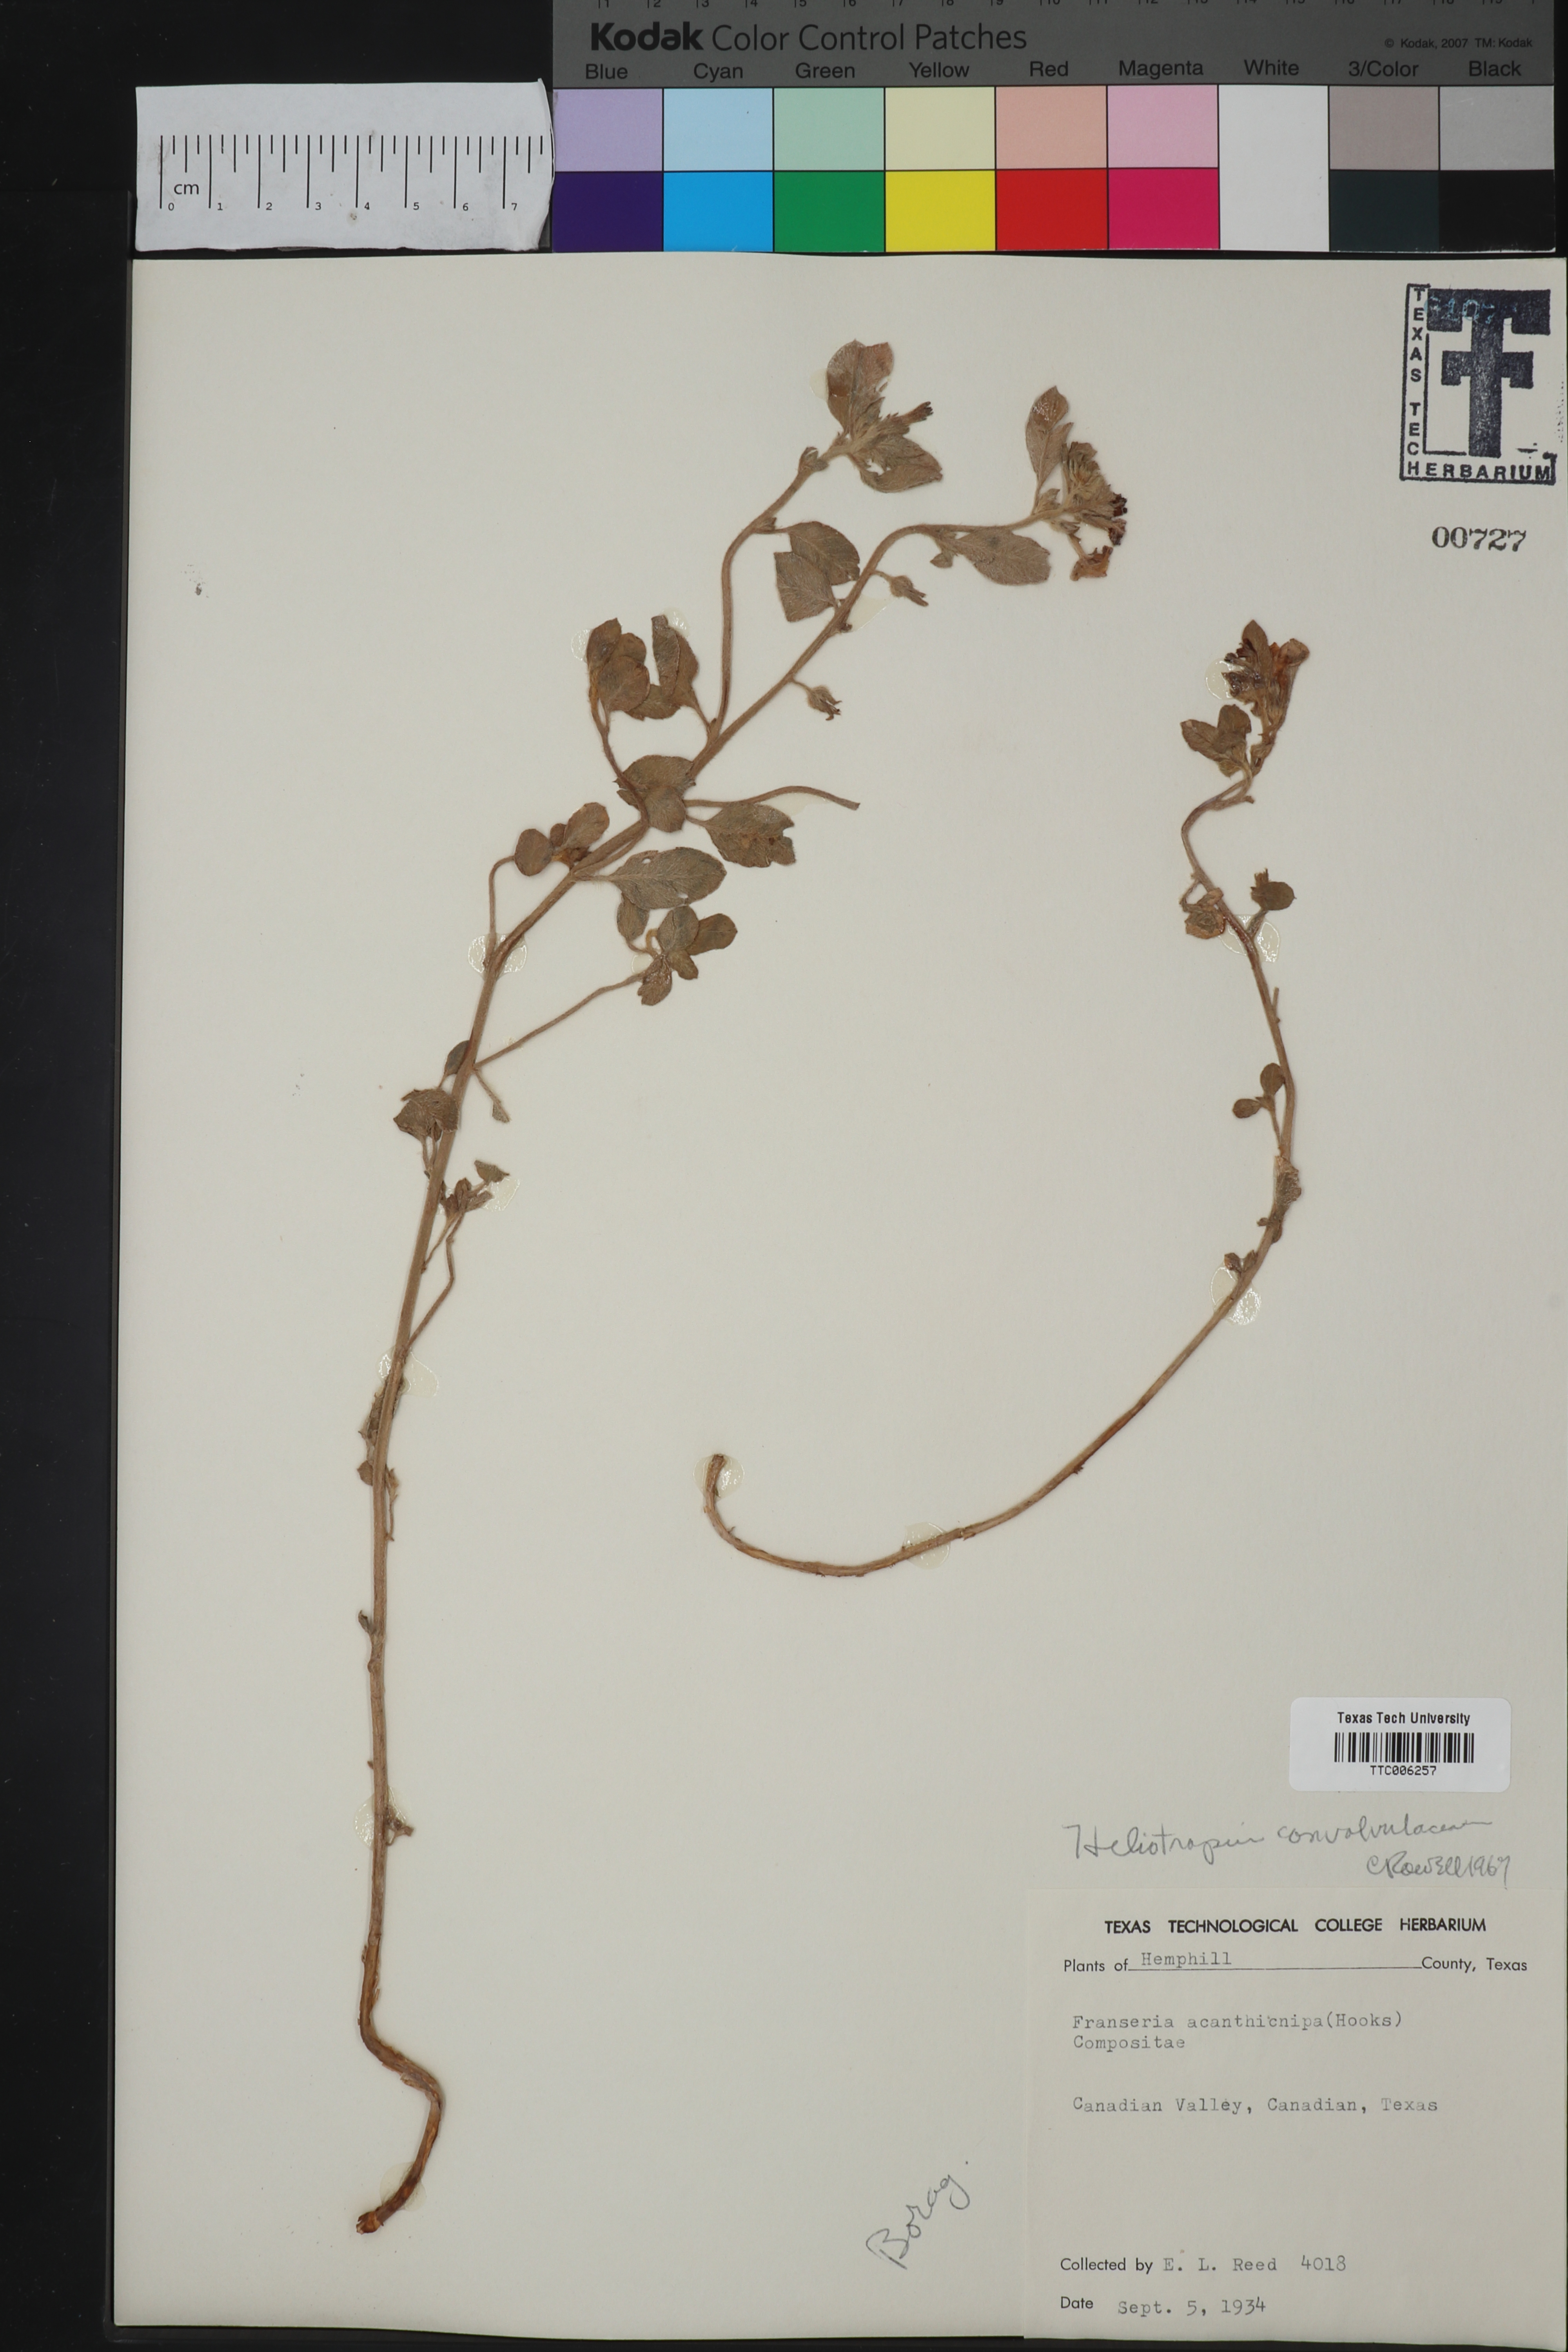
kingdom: Plantae
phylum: Tracheophyta
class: Magnoliopsida
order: Boraginales
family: Heliotropiaceae
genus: Euploca
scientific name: Euploca convolvulacea
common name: Bindweed heliotrope
